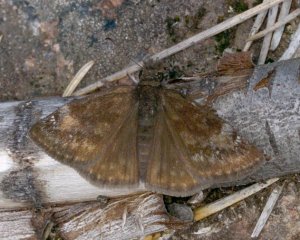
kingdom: Animalia
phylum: Arthropoda
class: Insecta
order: Lepidoptera
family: Hesperiidae
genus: Gesta
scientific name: Gesta
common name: Columbine Duskywing
